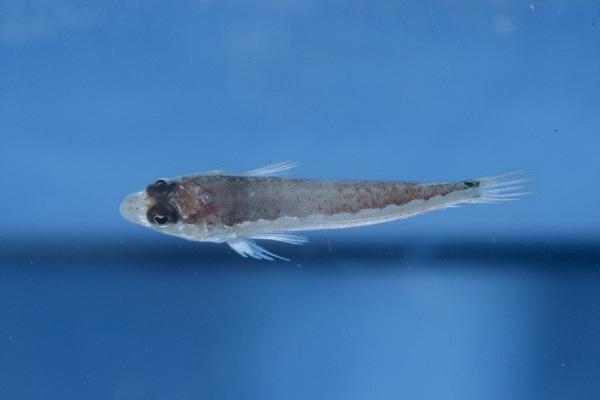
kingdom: Animalia
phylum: Chordata
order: Perciformes
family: Pinguipedidae
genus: Parapercis
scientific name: Parapercis schauinslandii
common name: Redspotted sandperch
